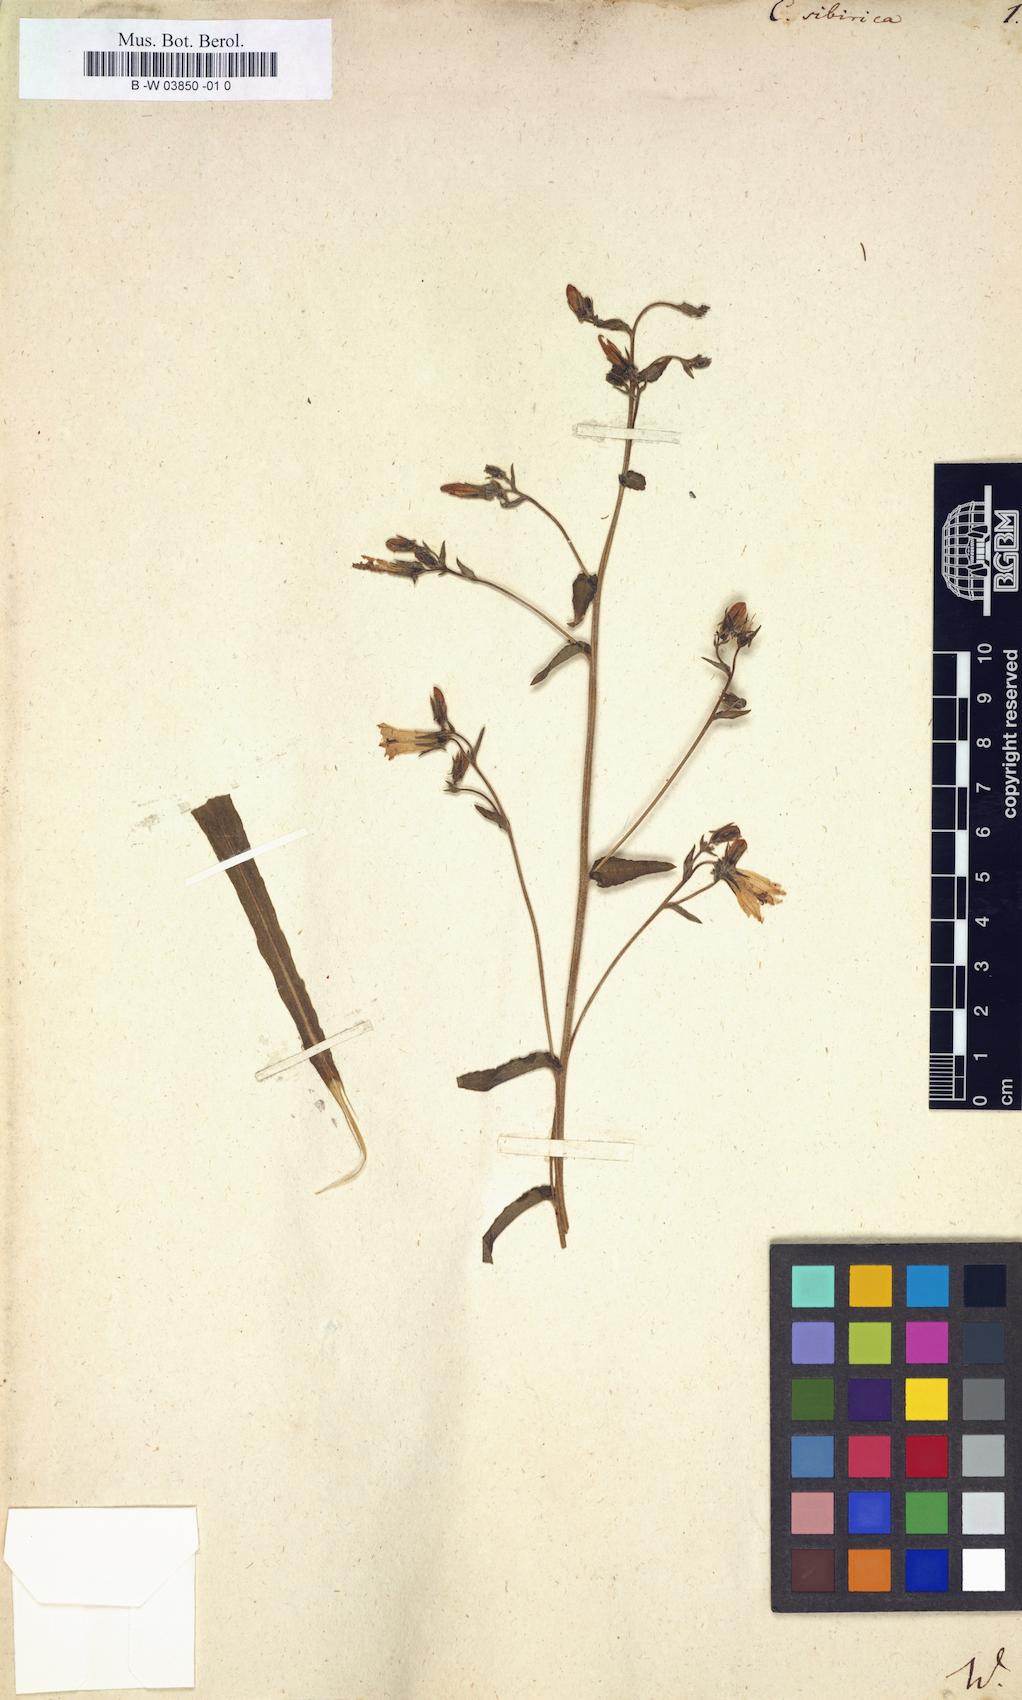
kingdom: Plantae
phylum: Tracheophyta
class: Magnoliopsida
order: Asterales
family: Campanulaceae
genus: Campanula
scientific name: Campanula sibirica
